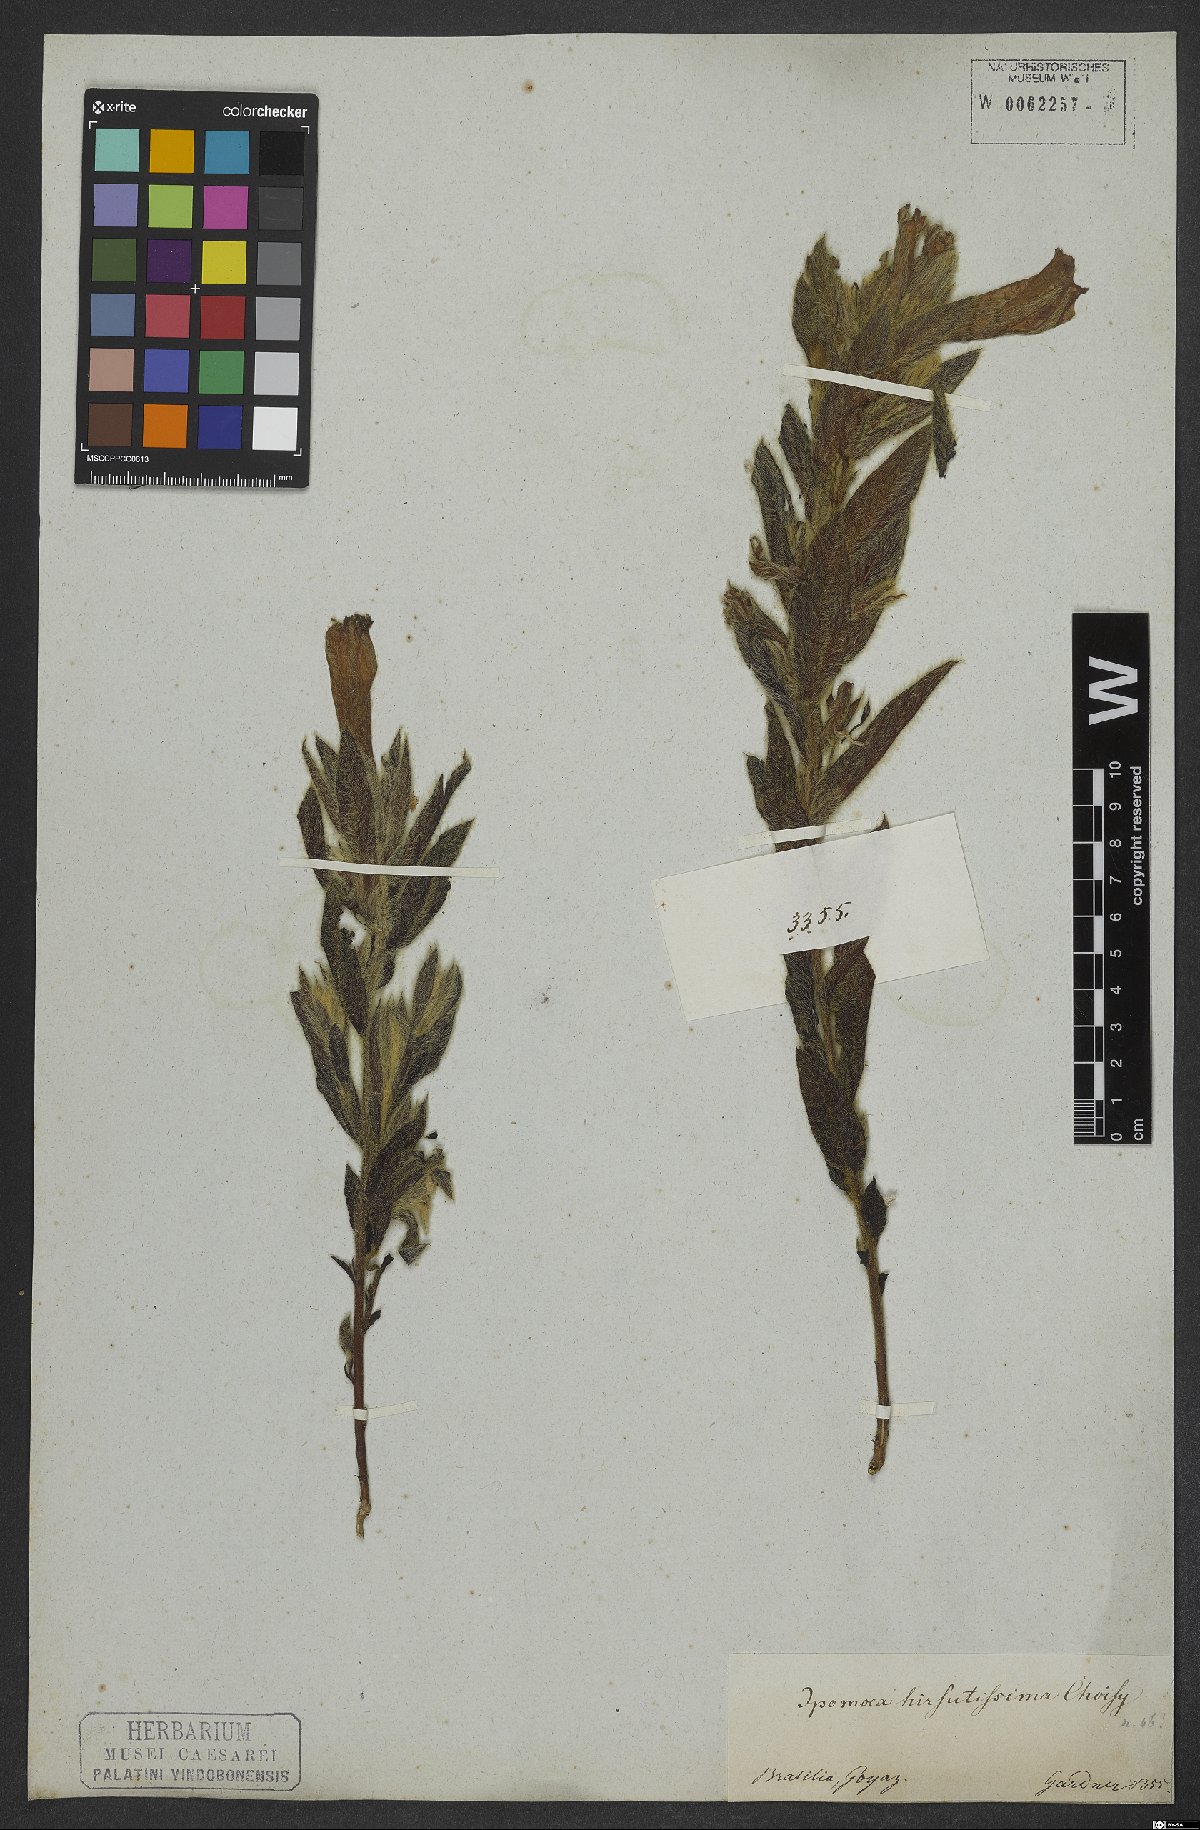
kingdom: Plantae
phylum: Tracheophyta
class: Magnoliopsida
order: Solanales
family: Convolvulaceae
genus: Ipomoea
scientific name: Ipomoea hirsutissima
